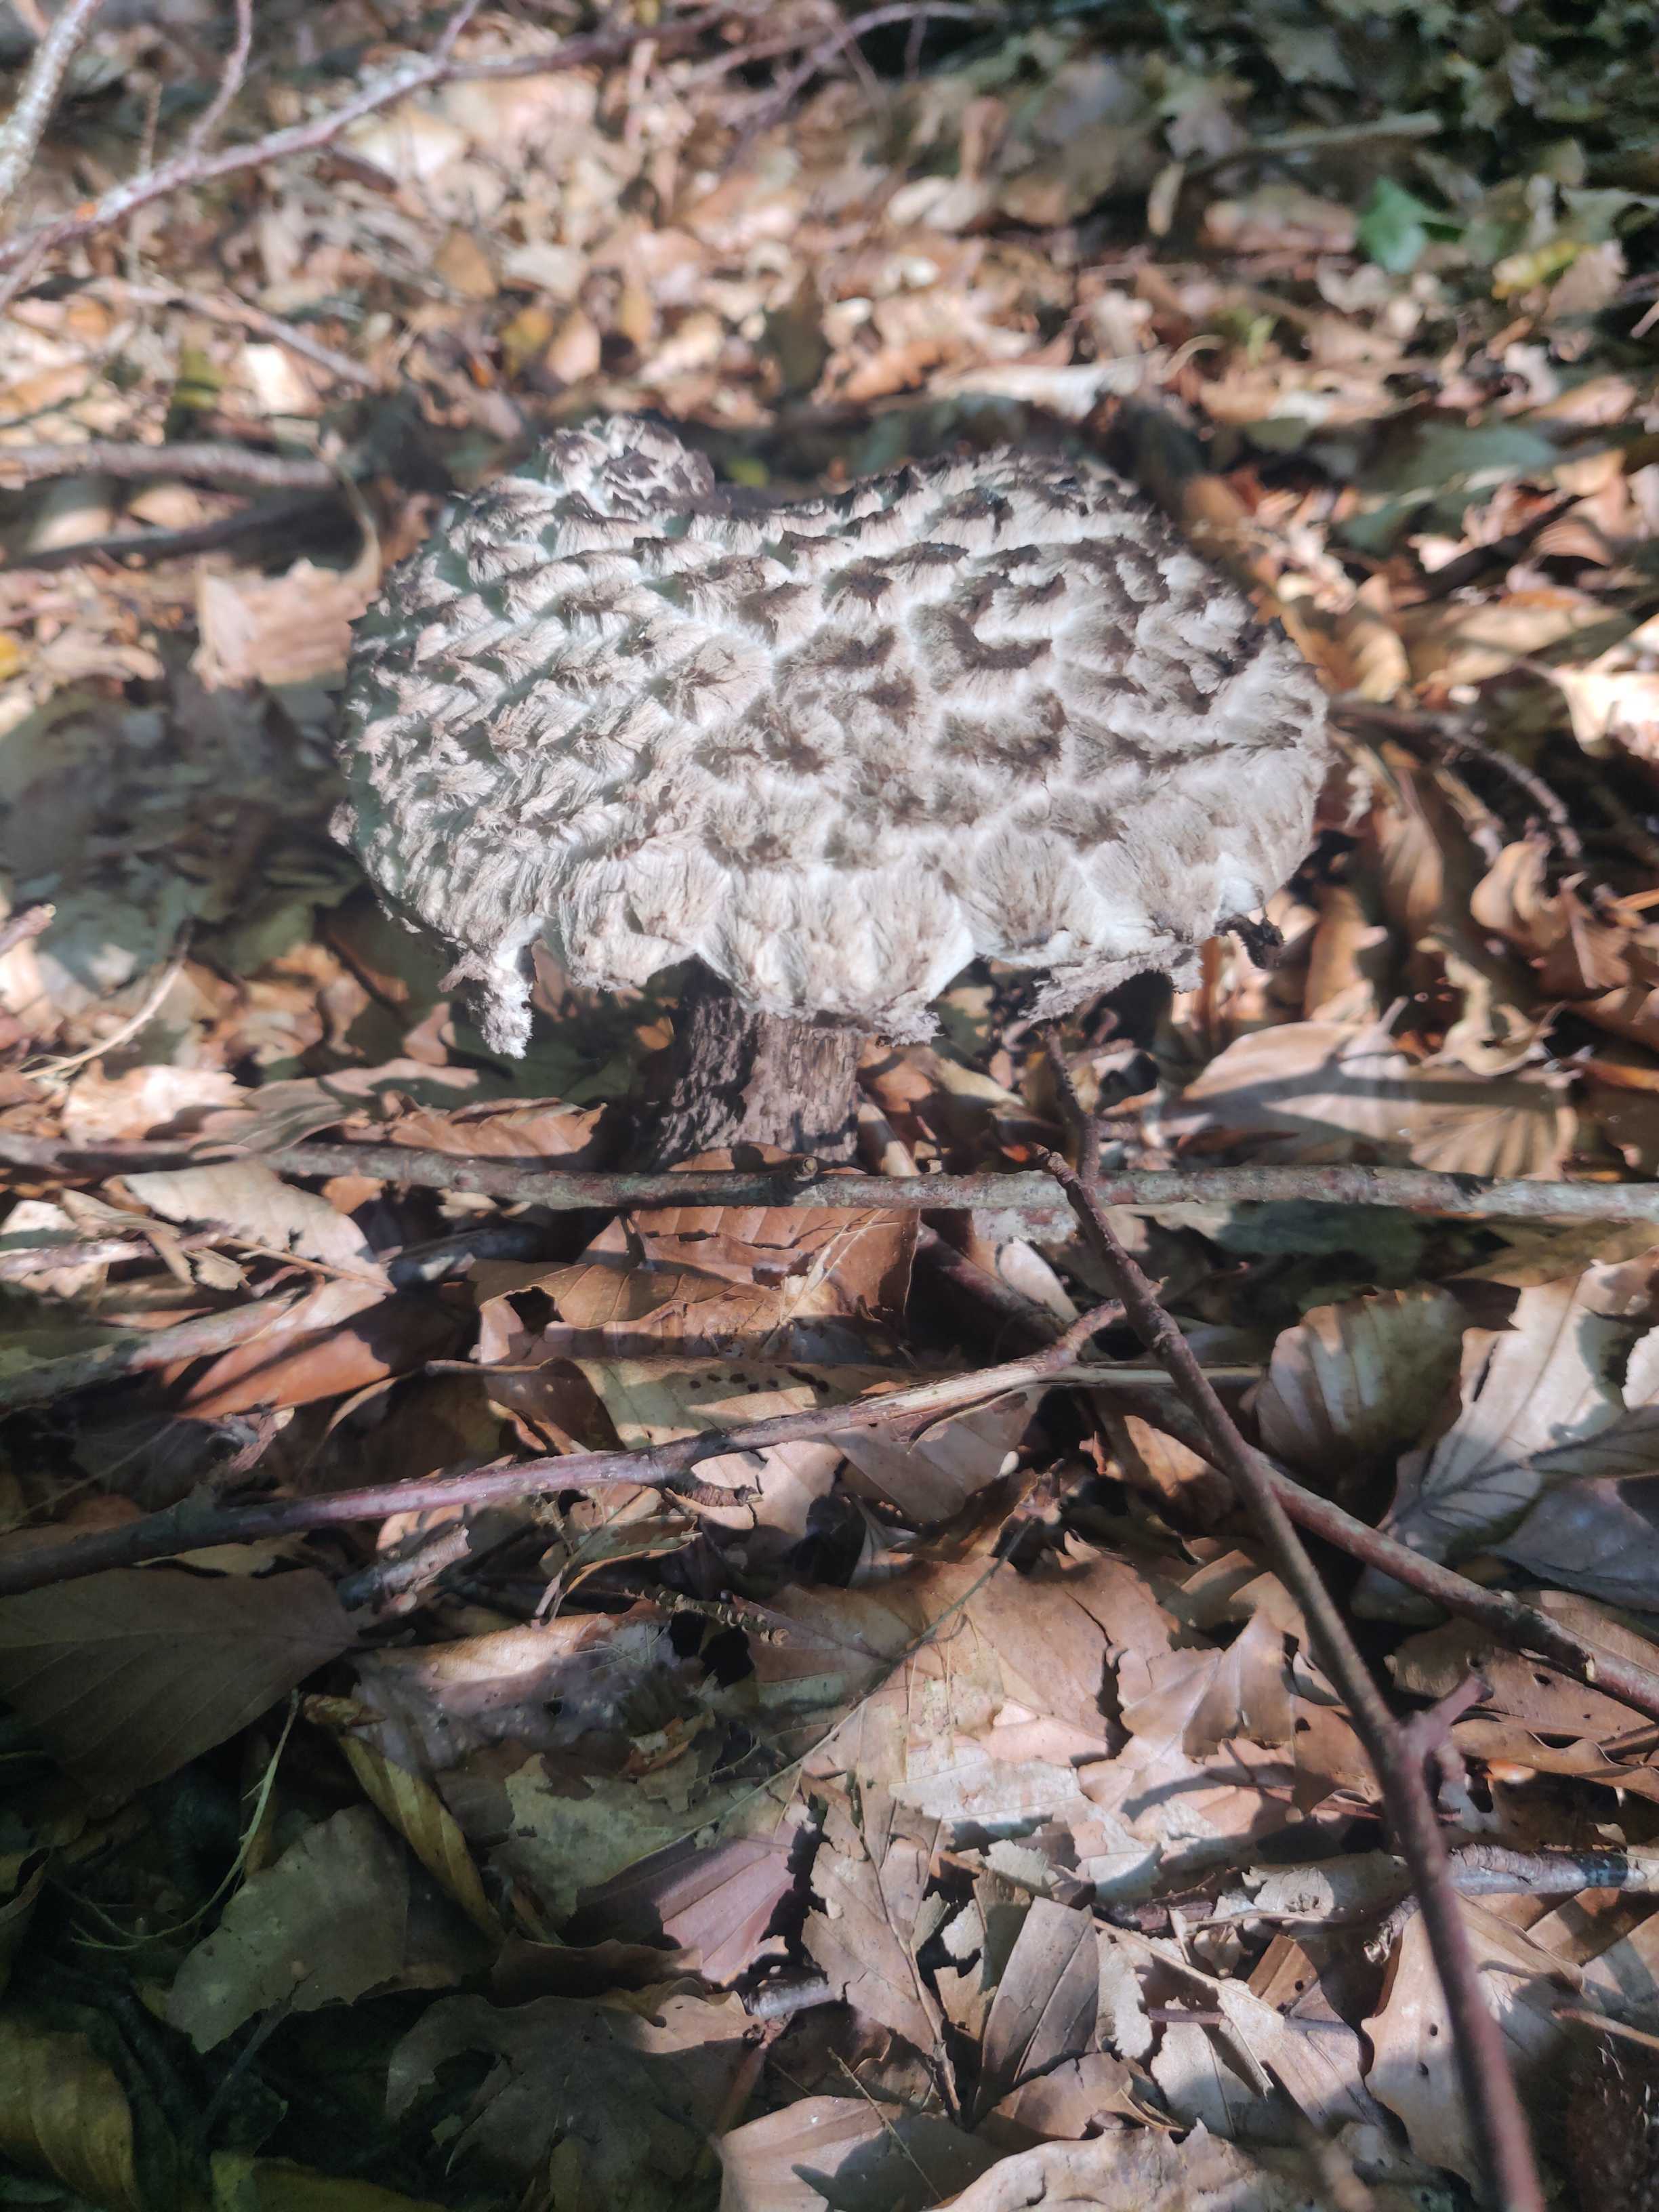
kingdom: Fungi
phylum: Basidiomycota
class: Agaricomycetes
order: Boletales
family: Boletaceae
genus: Strobilomyces
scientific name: Strobilomyces strobilaceus
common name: koglerørhat
